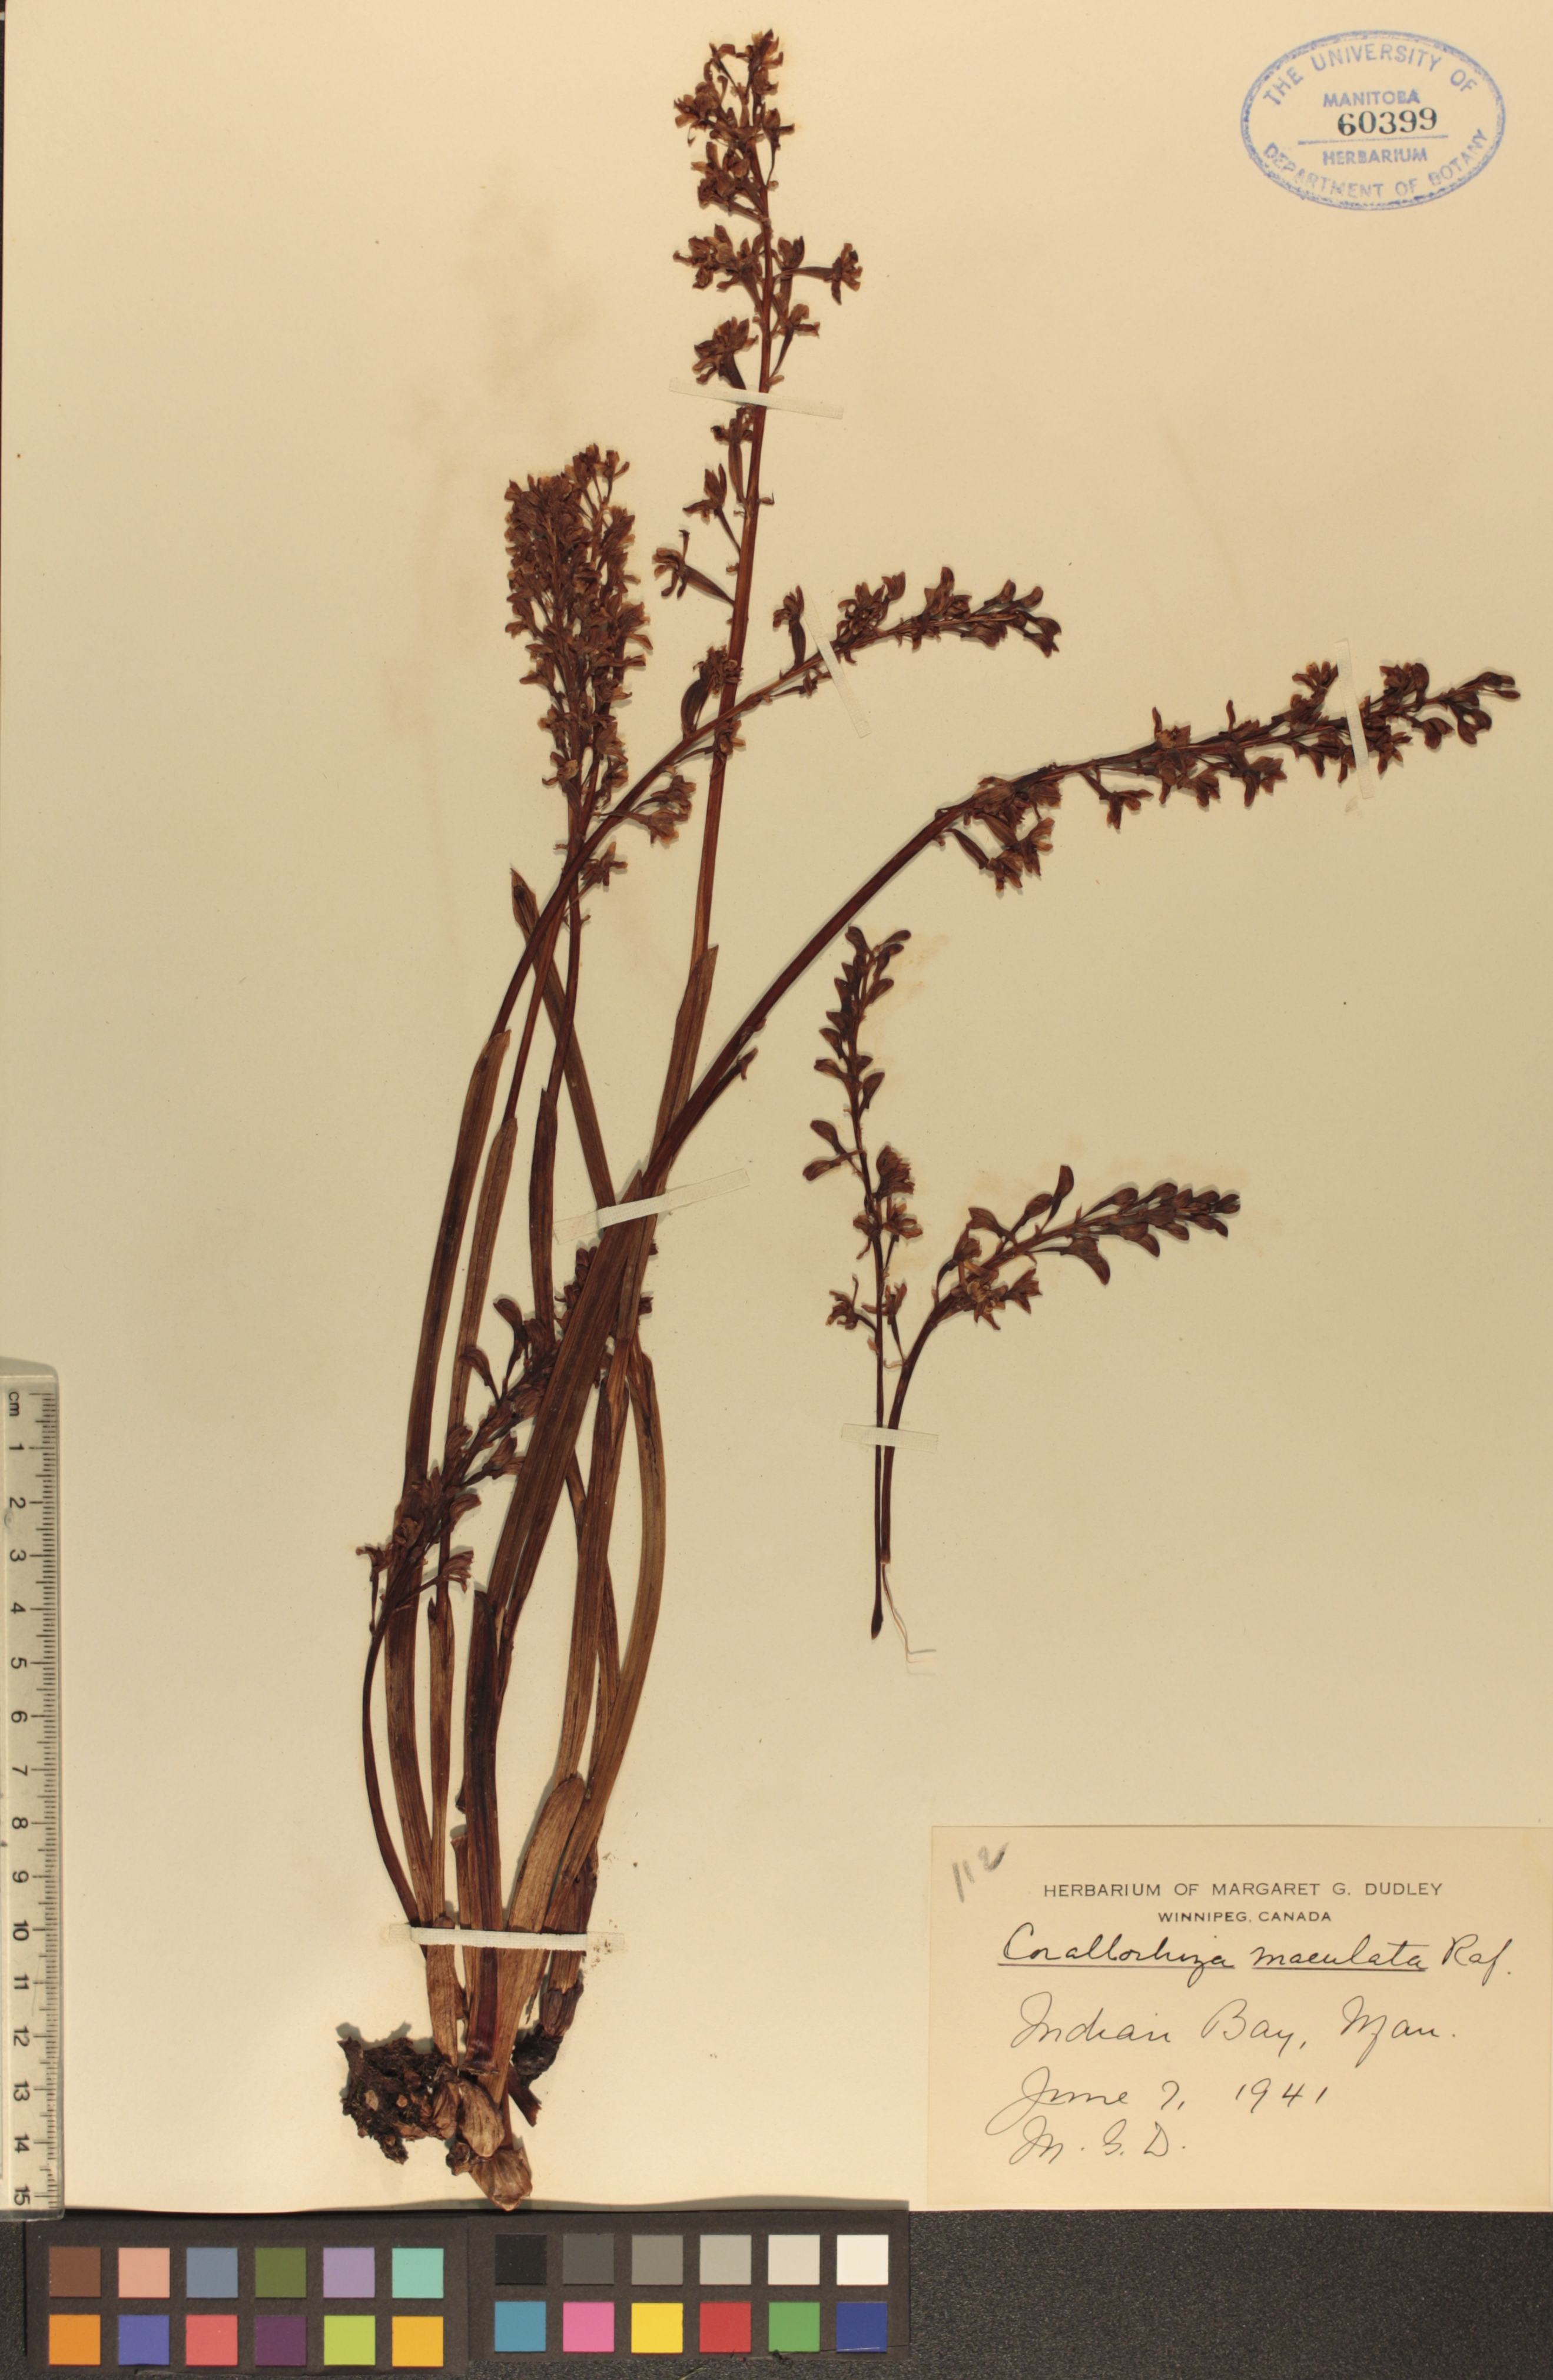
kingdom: Plantae
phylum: Tracheophyta
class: Liliopsida
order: Asparagales
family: Orchidaceae
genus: Corallorhiza
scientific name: Corallorhiza maculata
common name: Spotted coralroot
